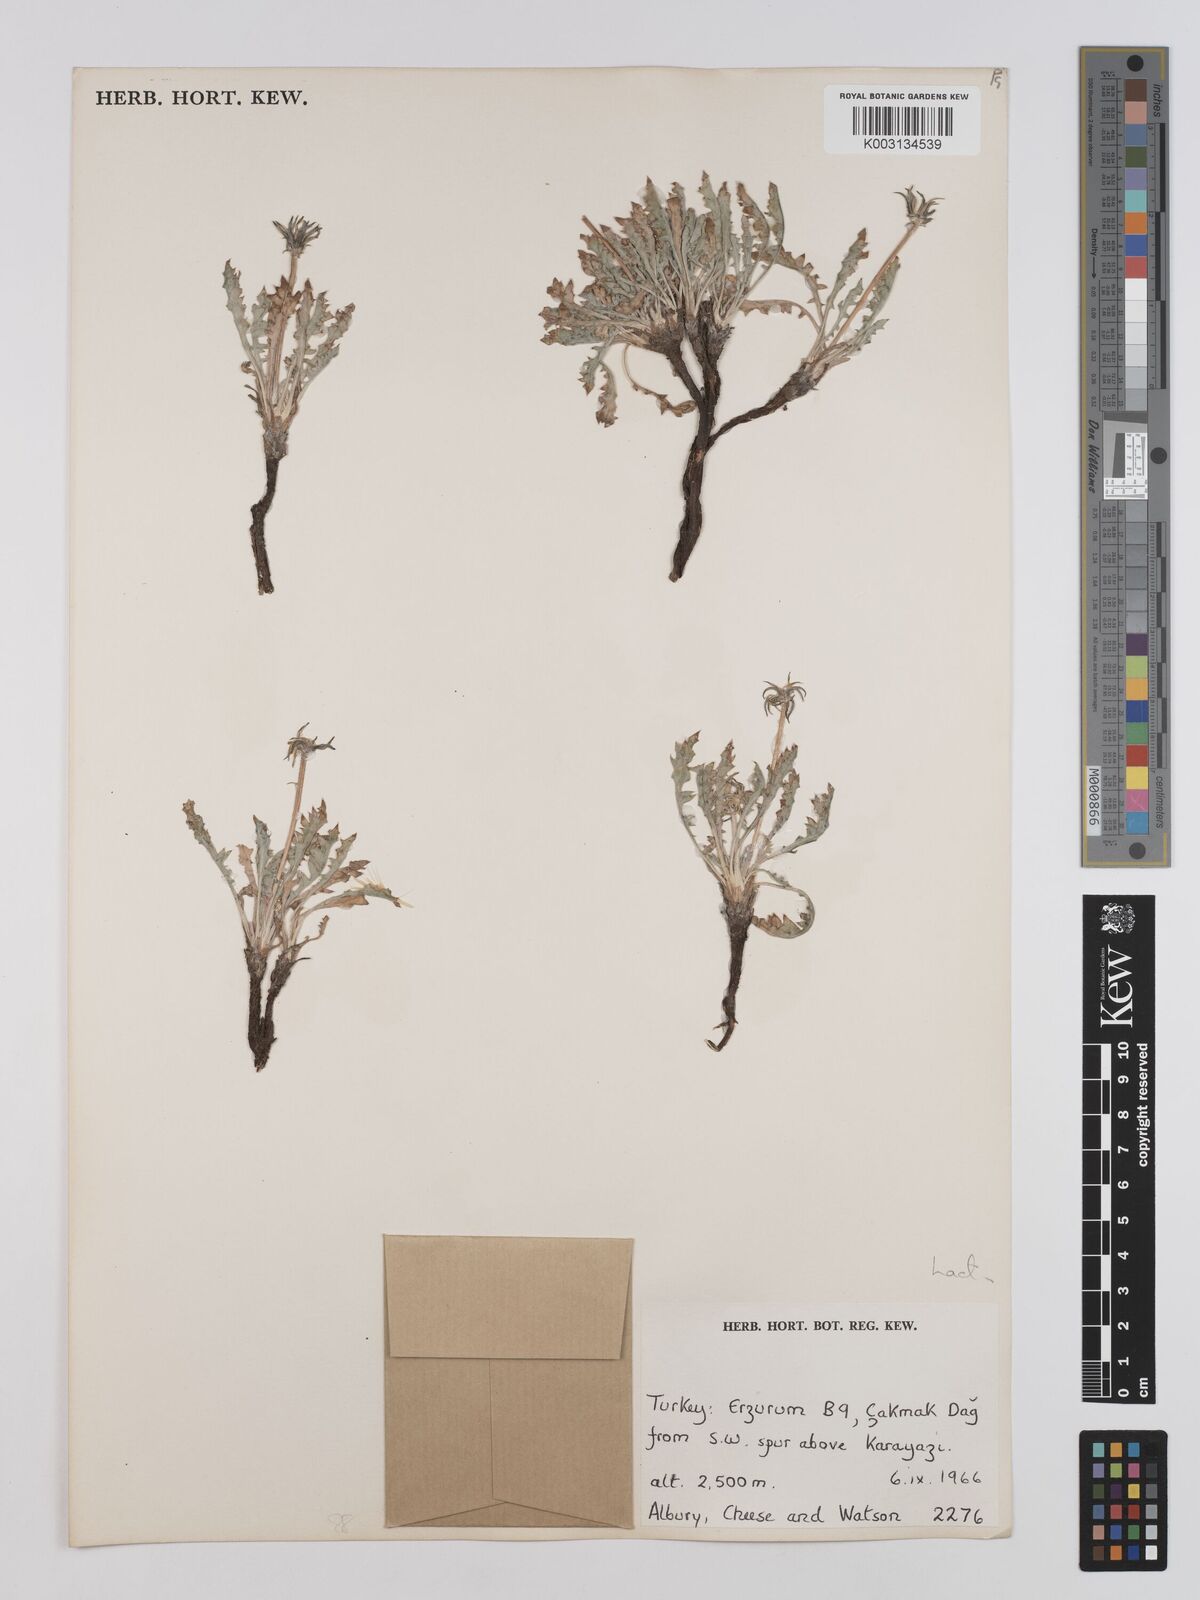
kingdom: Plantae
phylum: Tracheophyta
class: Magnoliopsida
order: Asterales
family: Asteraceae
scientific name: Asteraceae
